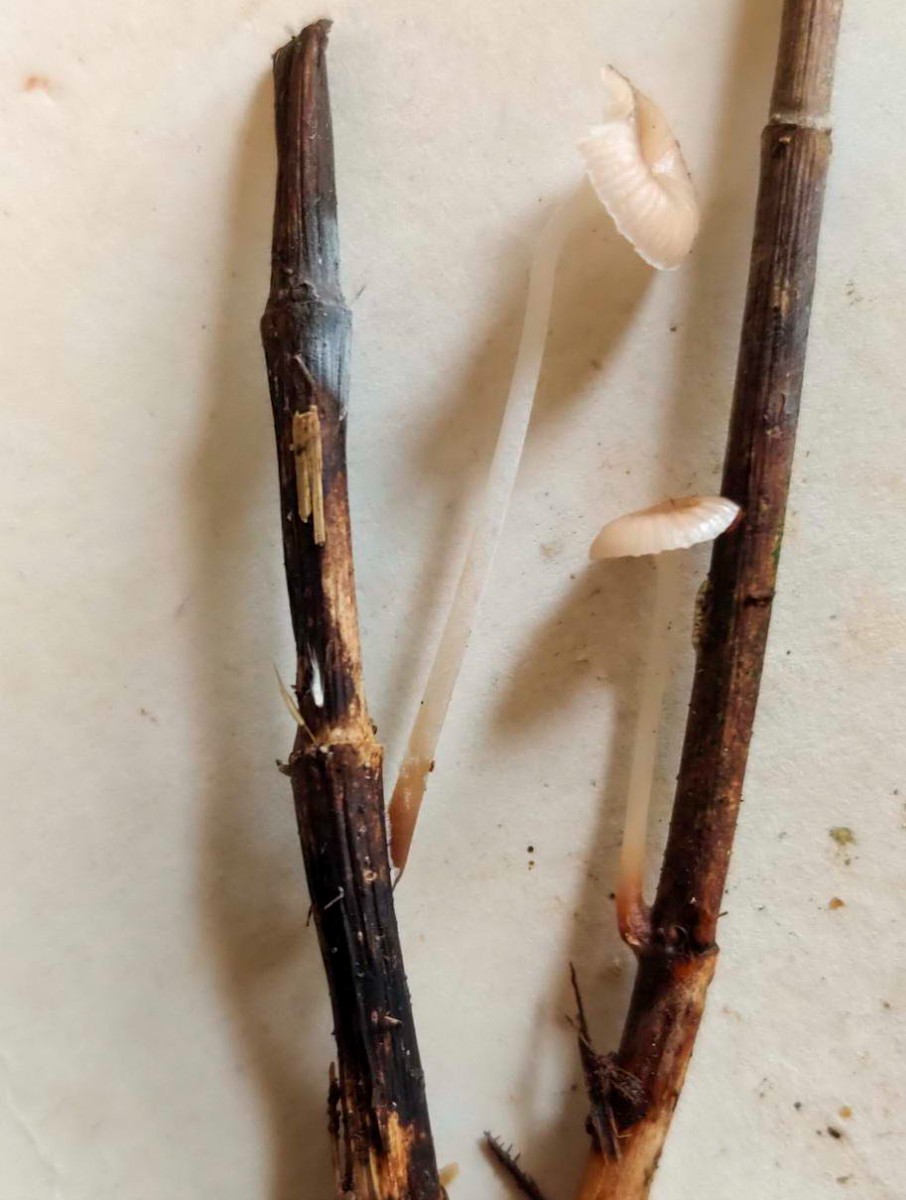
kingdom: Fungi
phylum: Basidiomycota
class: Agaricomycetes
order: Agaricales
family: Mycenaceae
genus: Mycena
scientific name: Mycena belliae
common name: tagrørs-huesvamp
